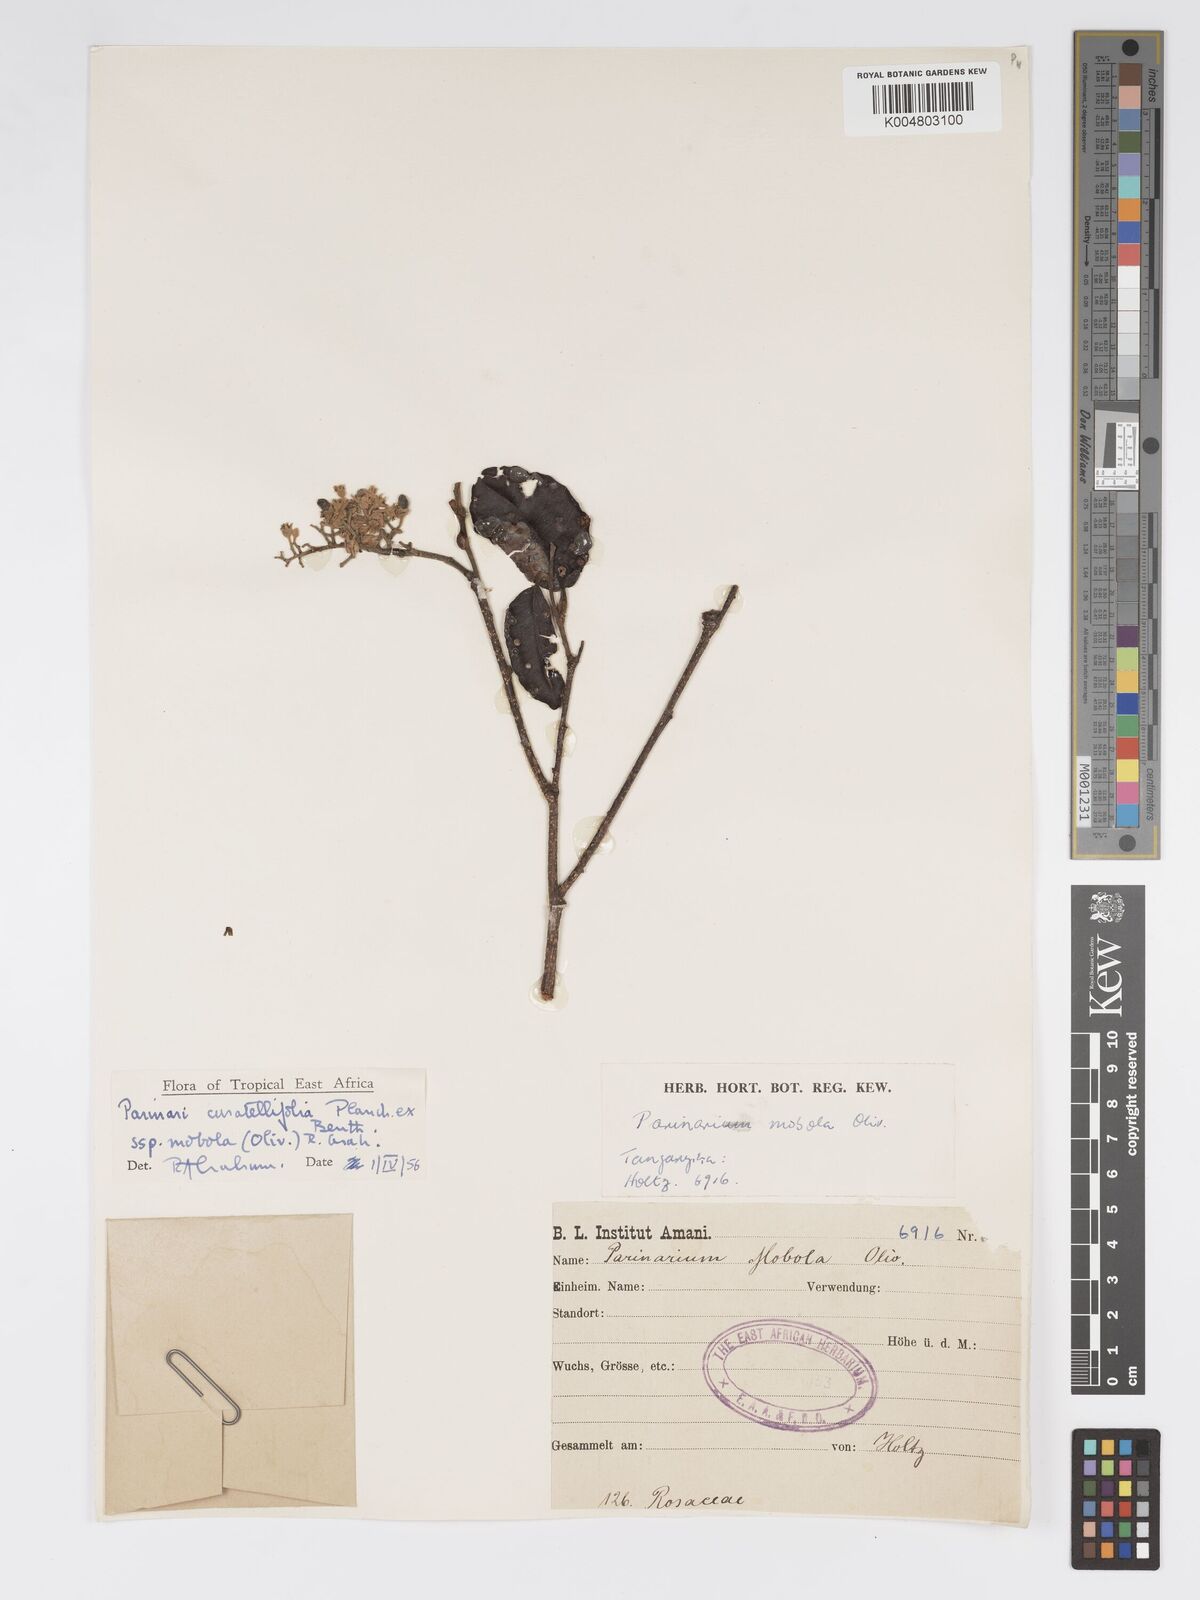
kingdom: Plantae
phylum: Tracheophyta
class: Magnoliopsida
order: Malpighiales
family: Chrysobalanaceae
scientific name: Chrysobalanaceae
